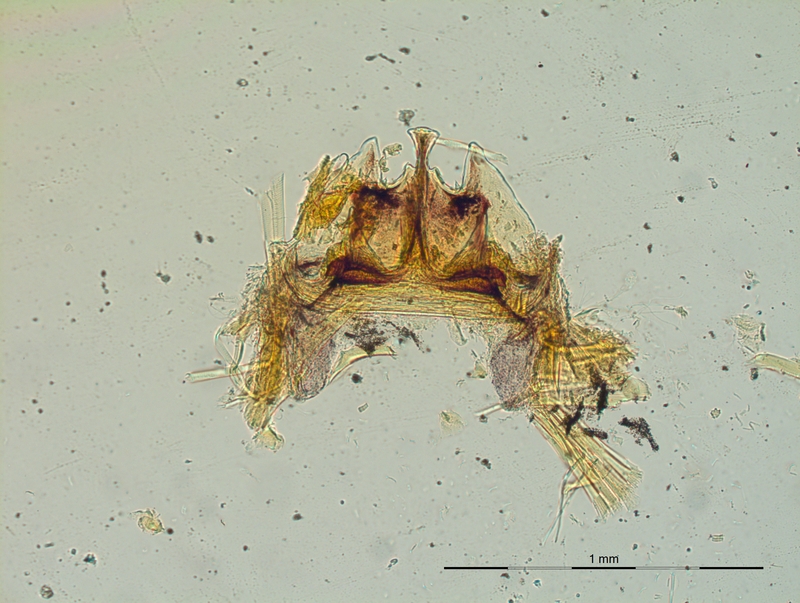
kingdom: Animalia
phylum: Arthropoda
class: Diplopoda
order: Chordeumatida
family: Craspedosomatidae
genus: Craspedosoma
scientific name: Craspedosoma transsilvanicum
